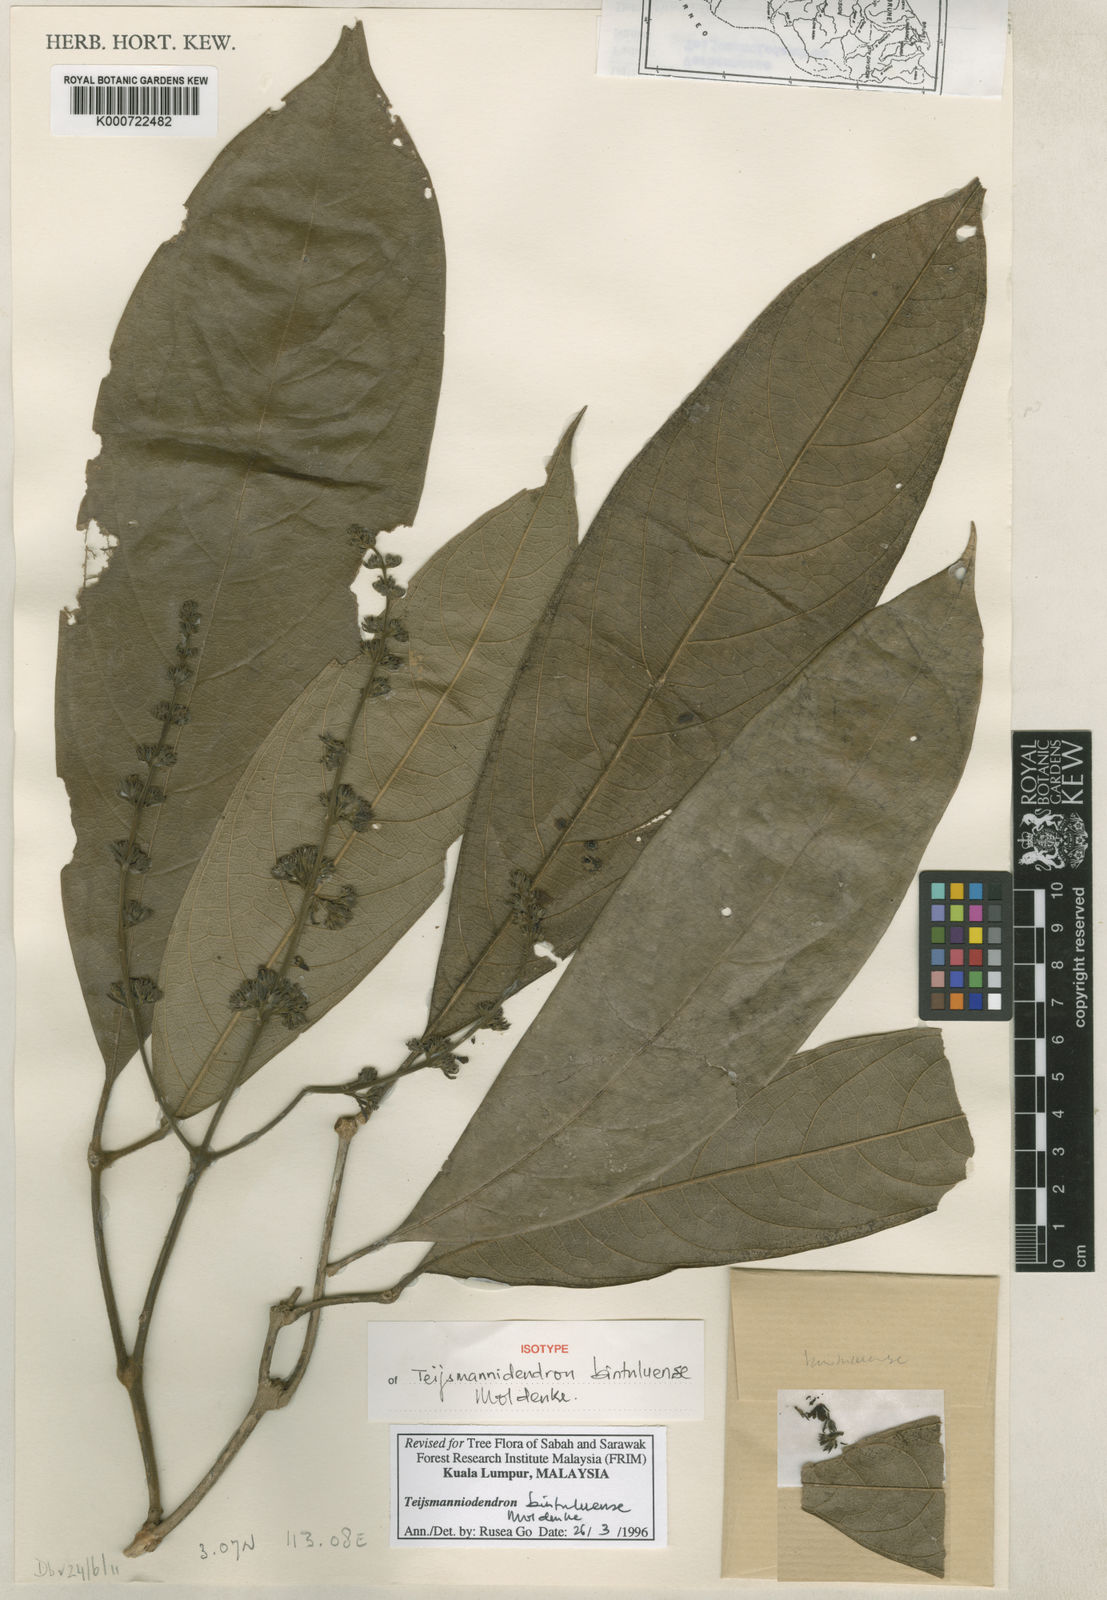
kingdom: Plantae
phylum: Tracheophyta
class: Magnoliopsida
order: Lamiales
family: Lamiaceae
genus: Teijsmanniodendron
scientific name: Teijsmanniodendron bintuluense
